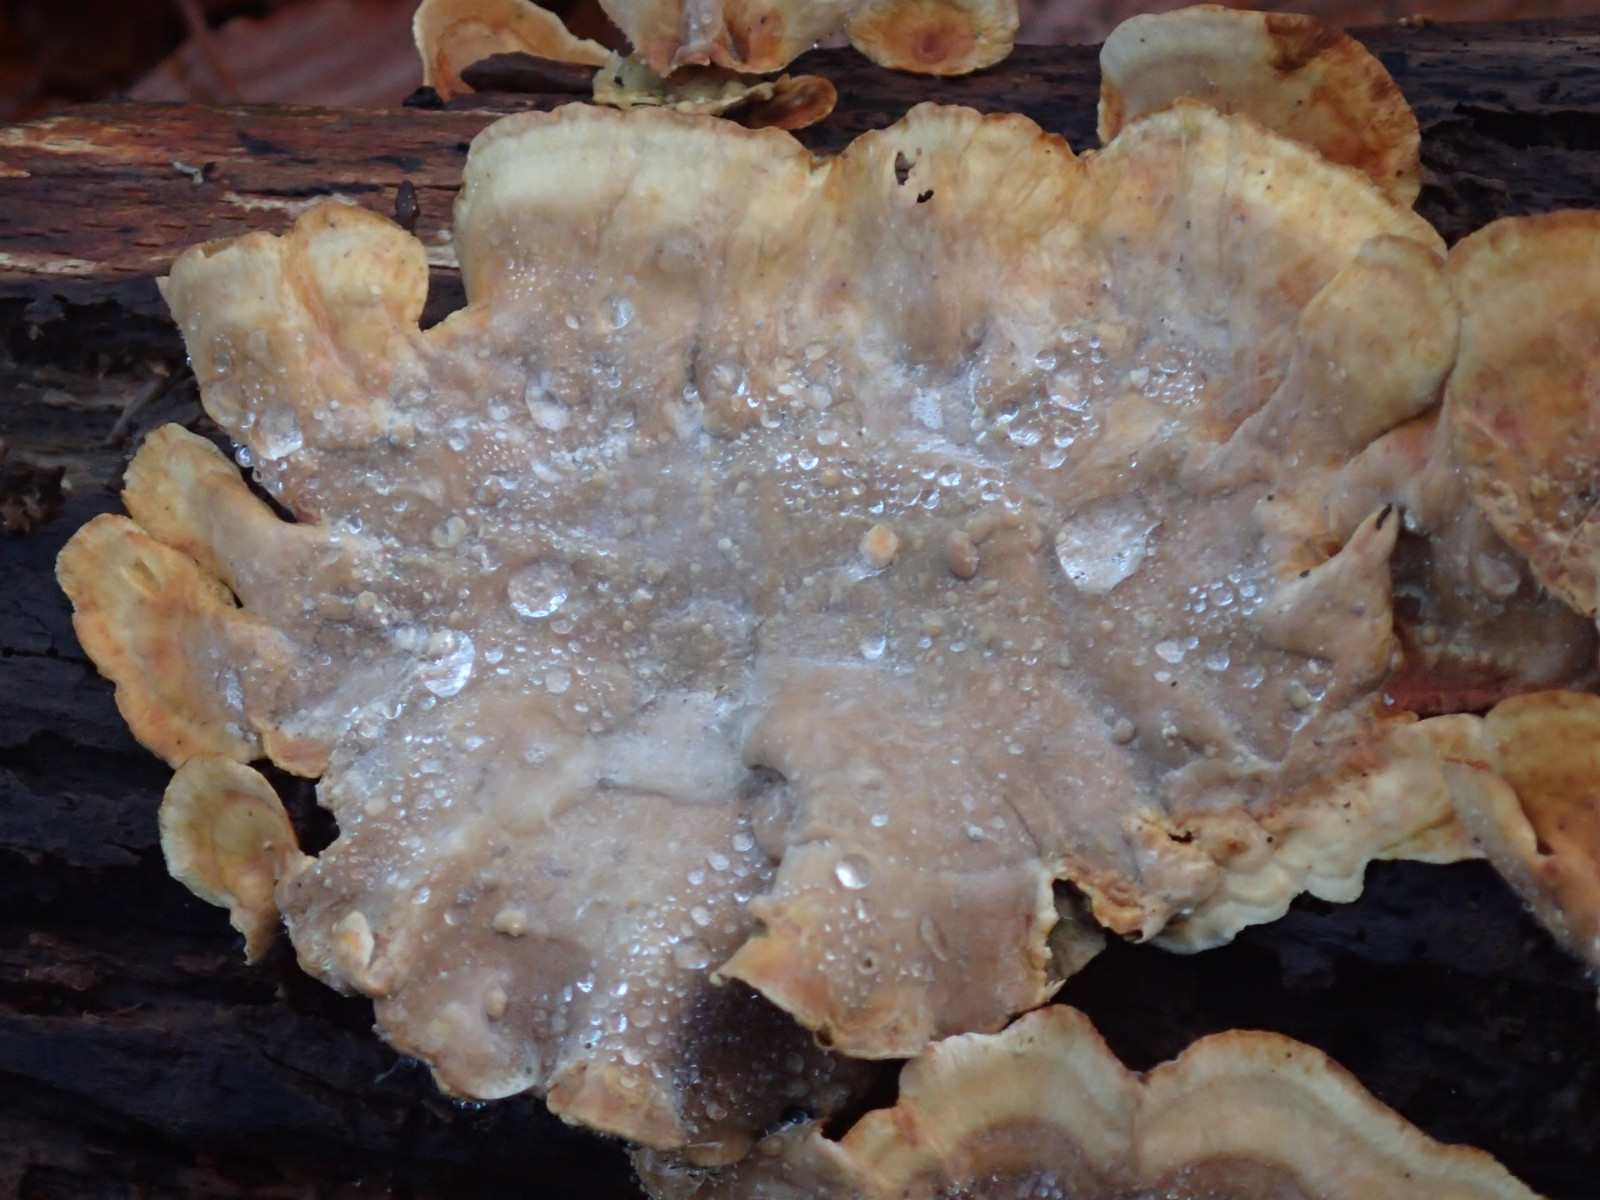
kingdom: Fungi
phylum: Basidiomycota
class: Agaricomycetes
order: Russulales
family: Stereaceae
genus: Stereum
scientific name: Stereum
